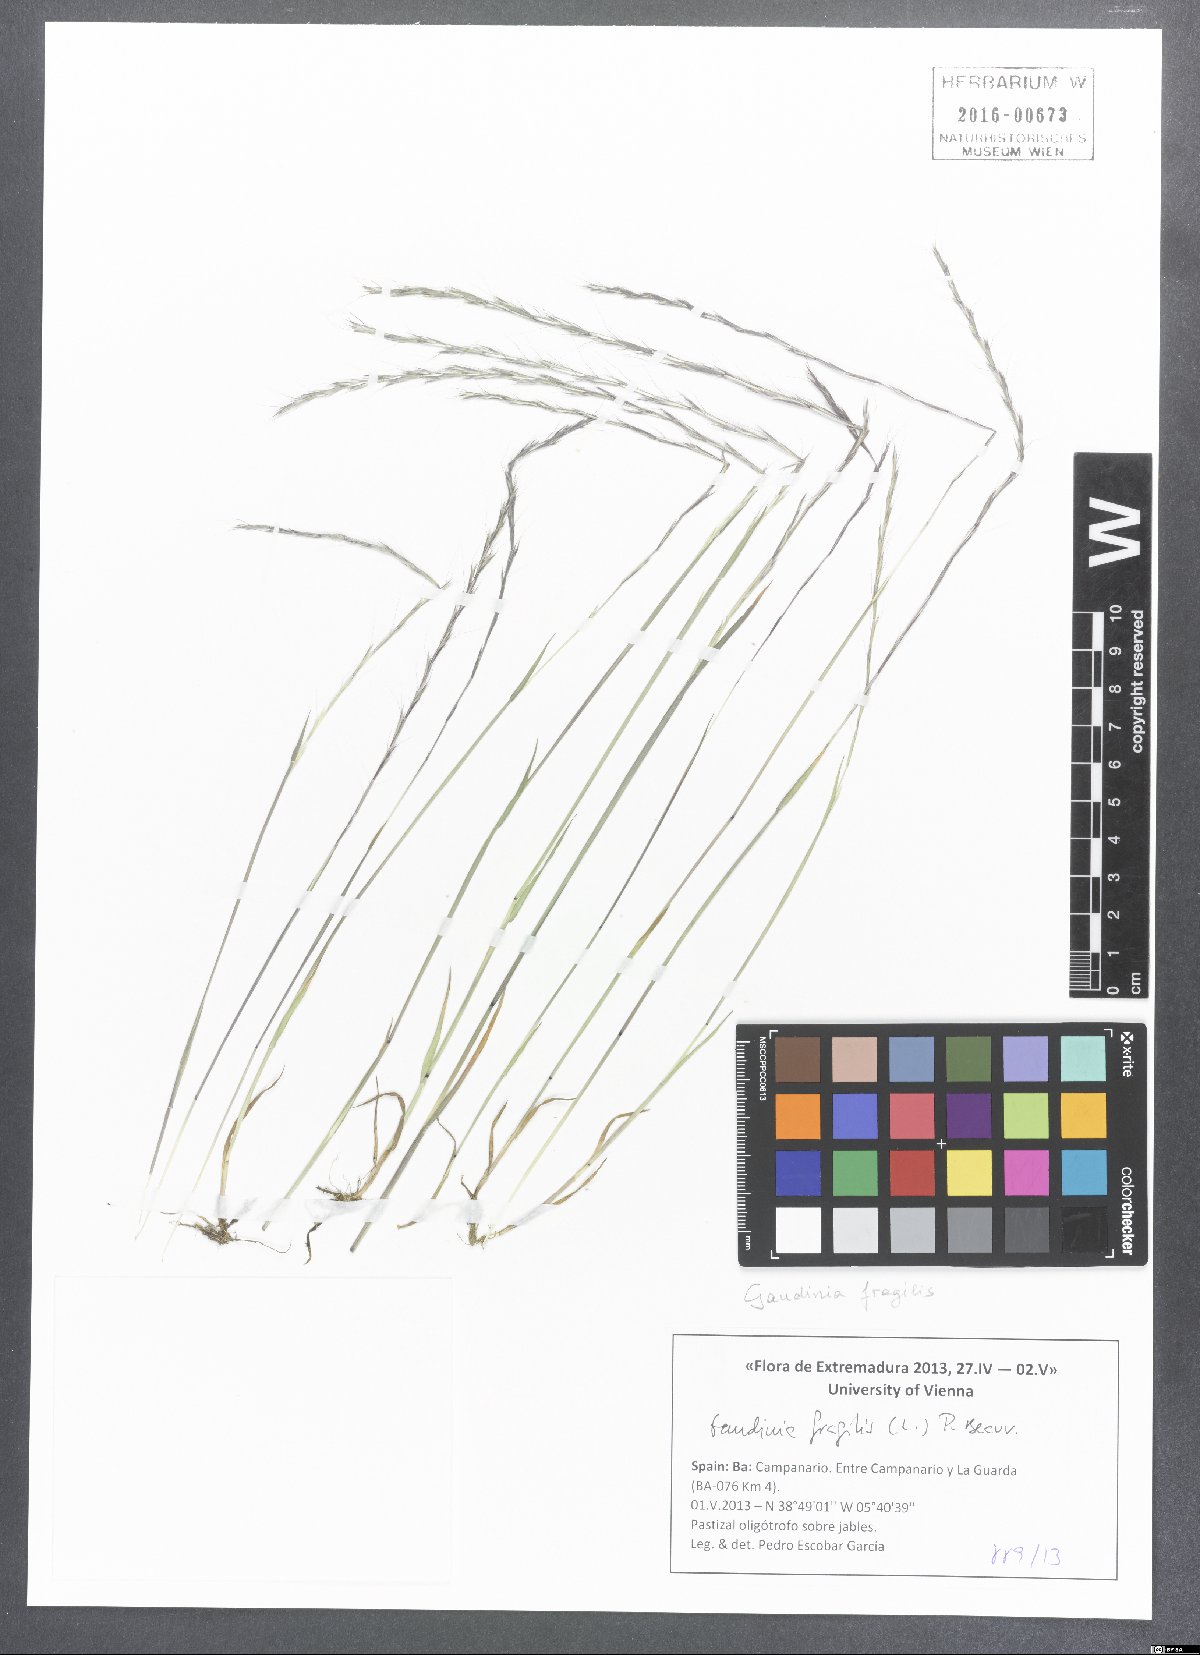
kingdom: Plantae
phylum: Tracheophyta
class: Liliopsida
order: Poales
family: Poaceae
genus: Gaudinia
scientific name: Gaudinia fragilis
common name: French oat-grass
